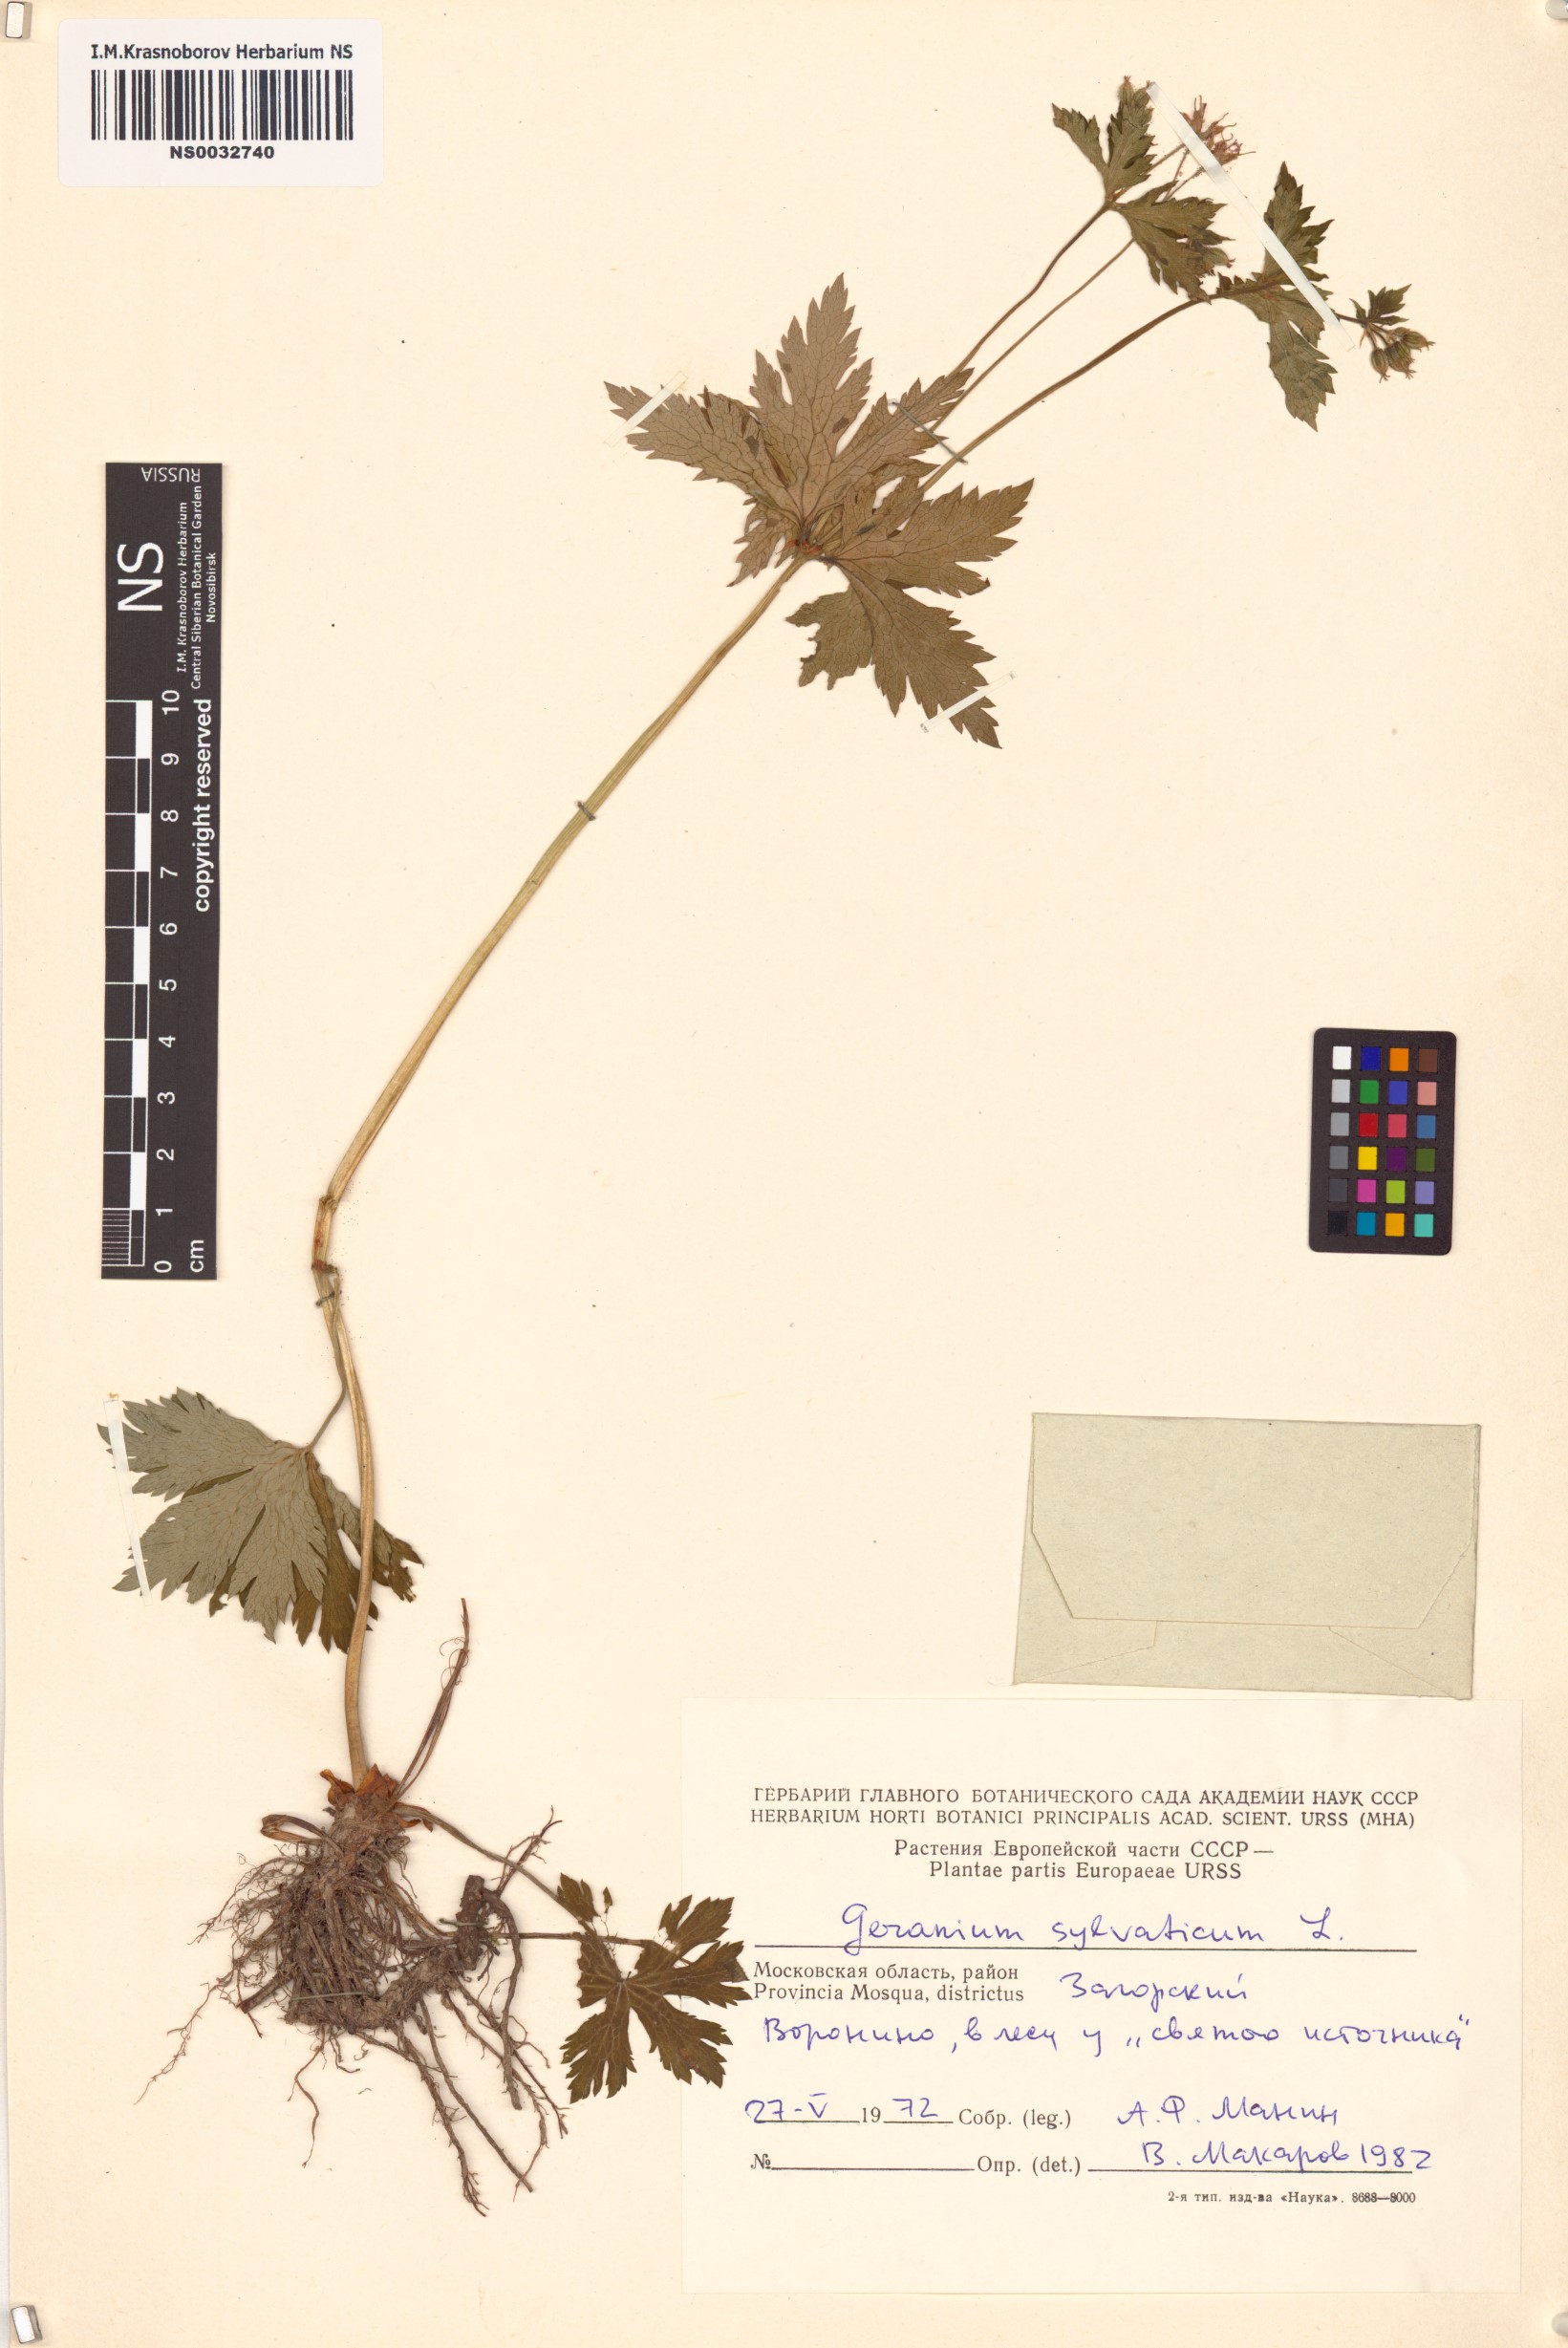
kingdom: Plantae
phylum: Tracheophyta
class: Magnoliopsida
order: Geraniales
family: Geraniaceae
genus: Geranium
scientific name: Geranium sylvaticum
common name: Wood crane's-bill
